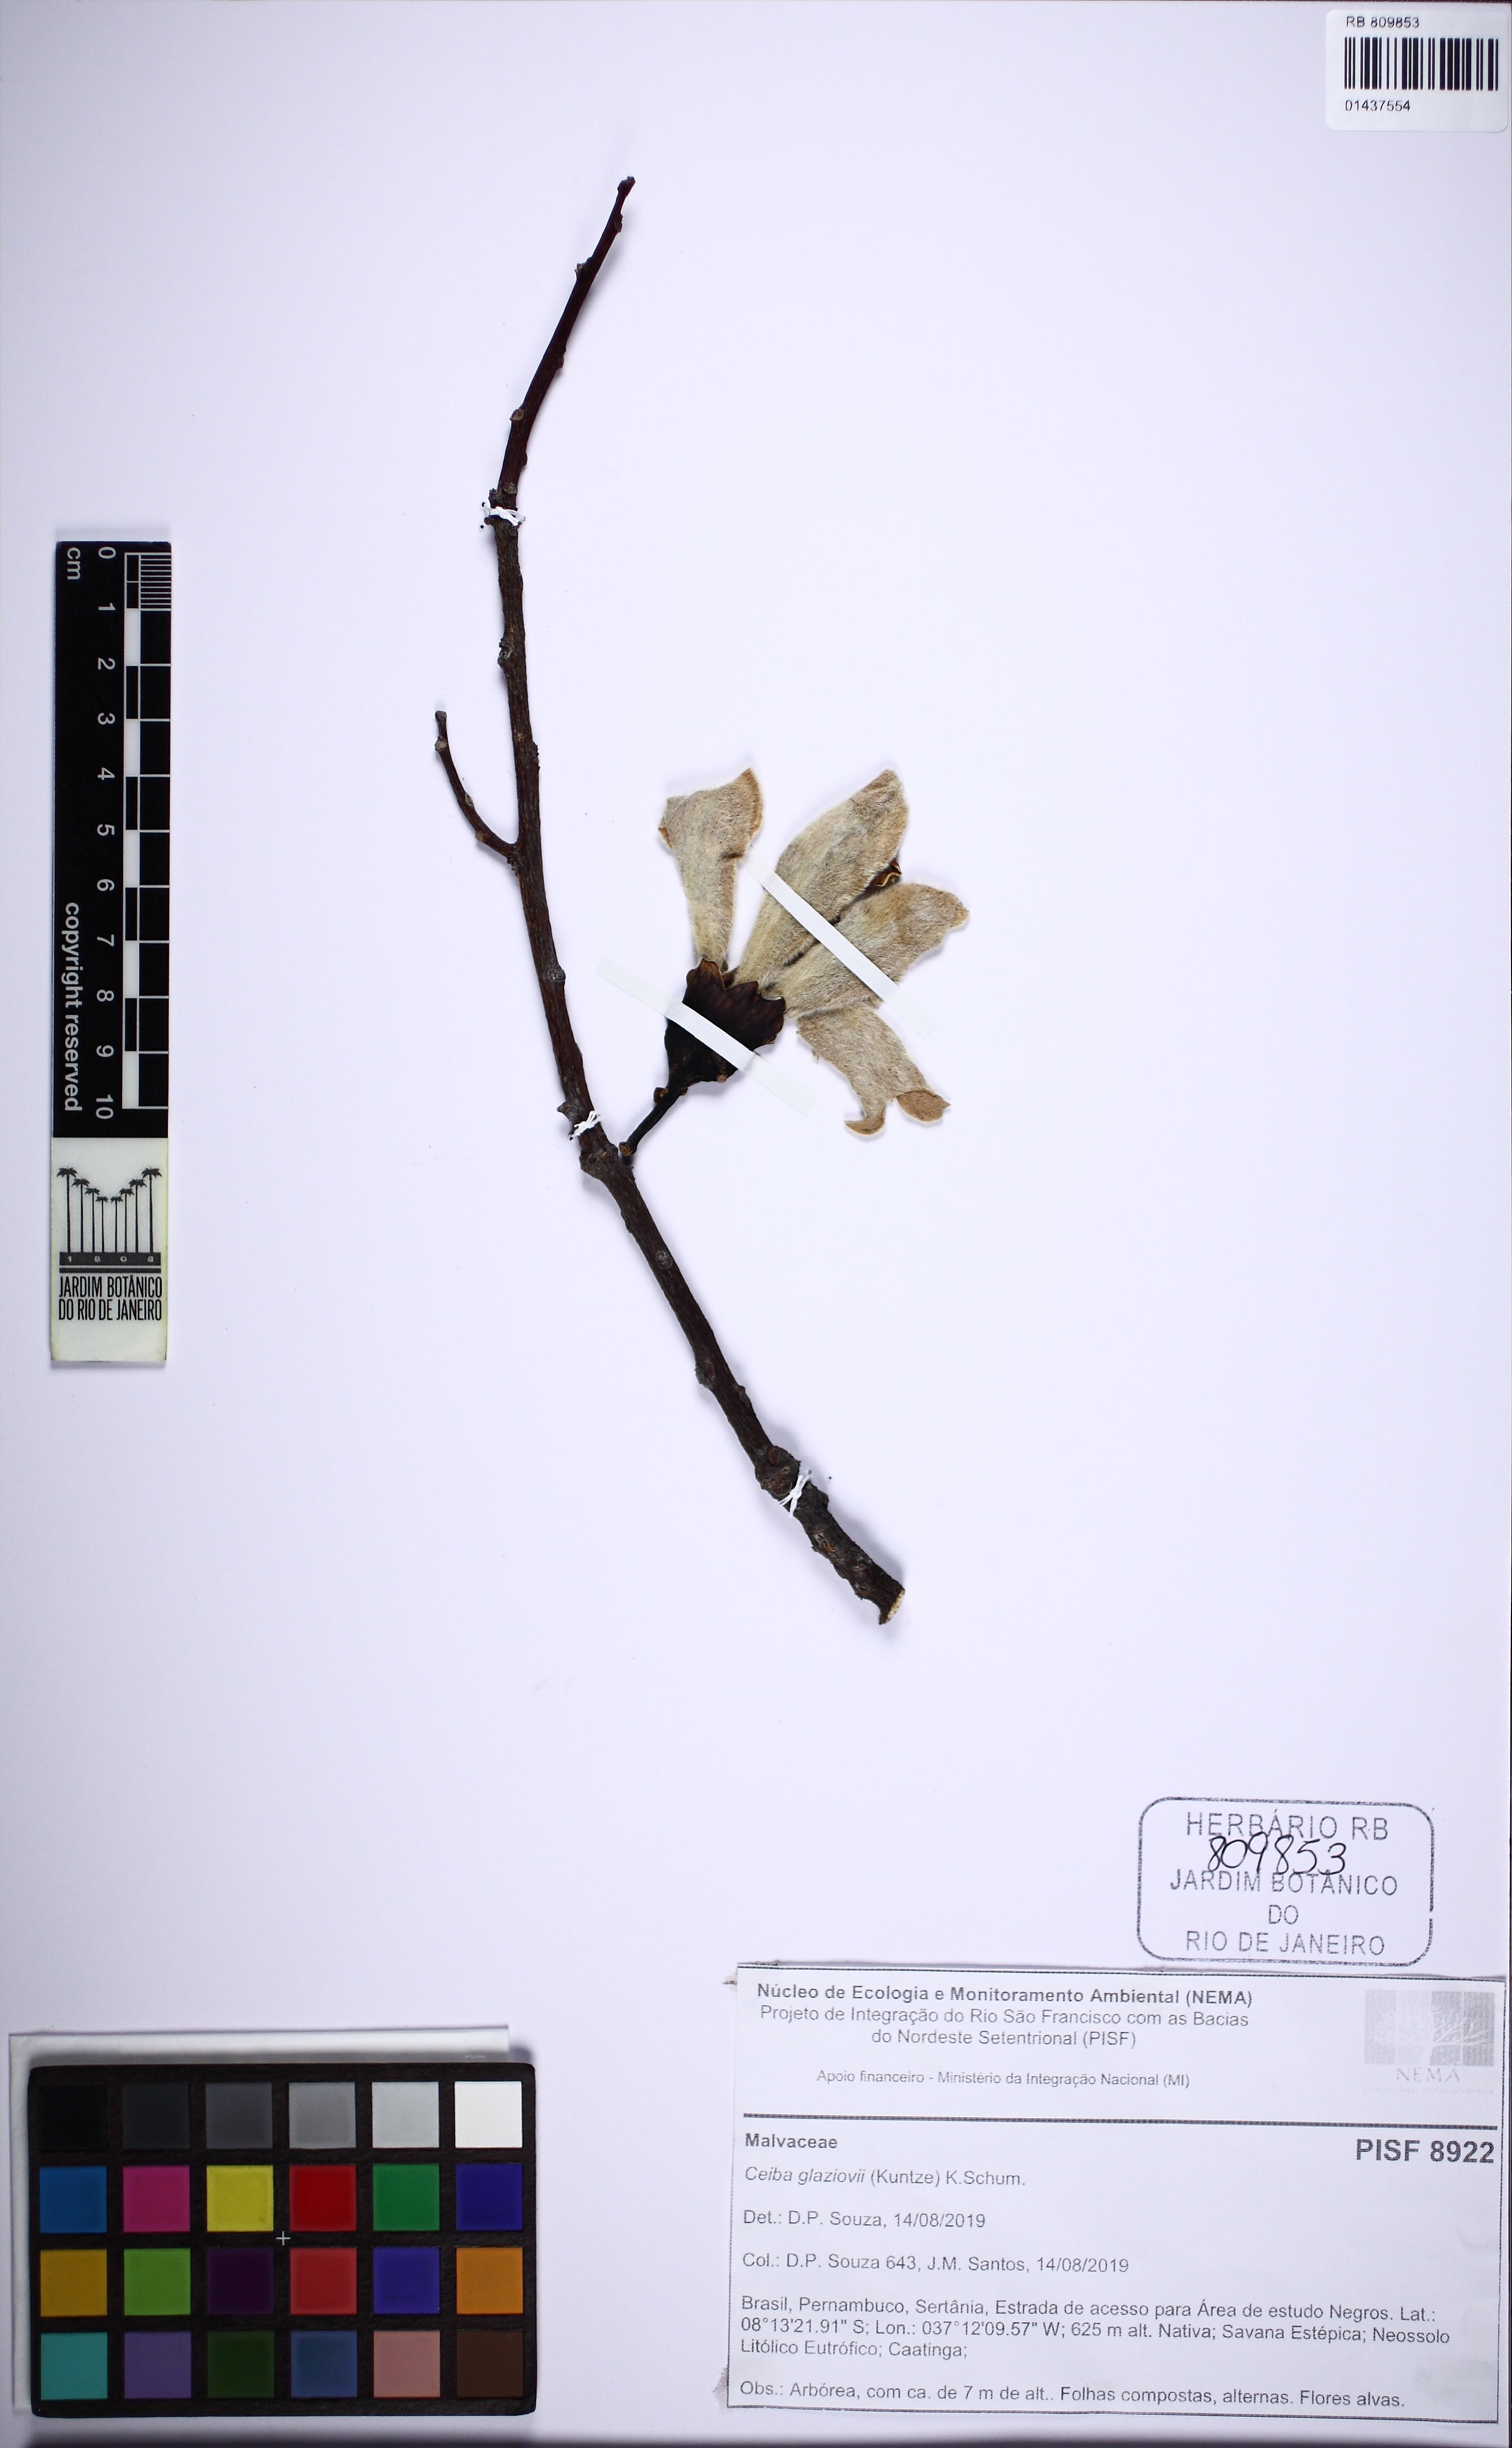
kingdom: Plantae
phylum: Tracheophyta
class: Magnoliopsida
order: Malvales
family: Malvaceae
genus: Ceiba
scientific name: Ceiba glaziovii
